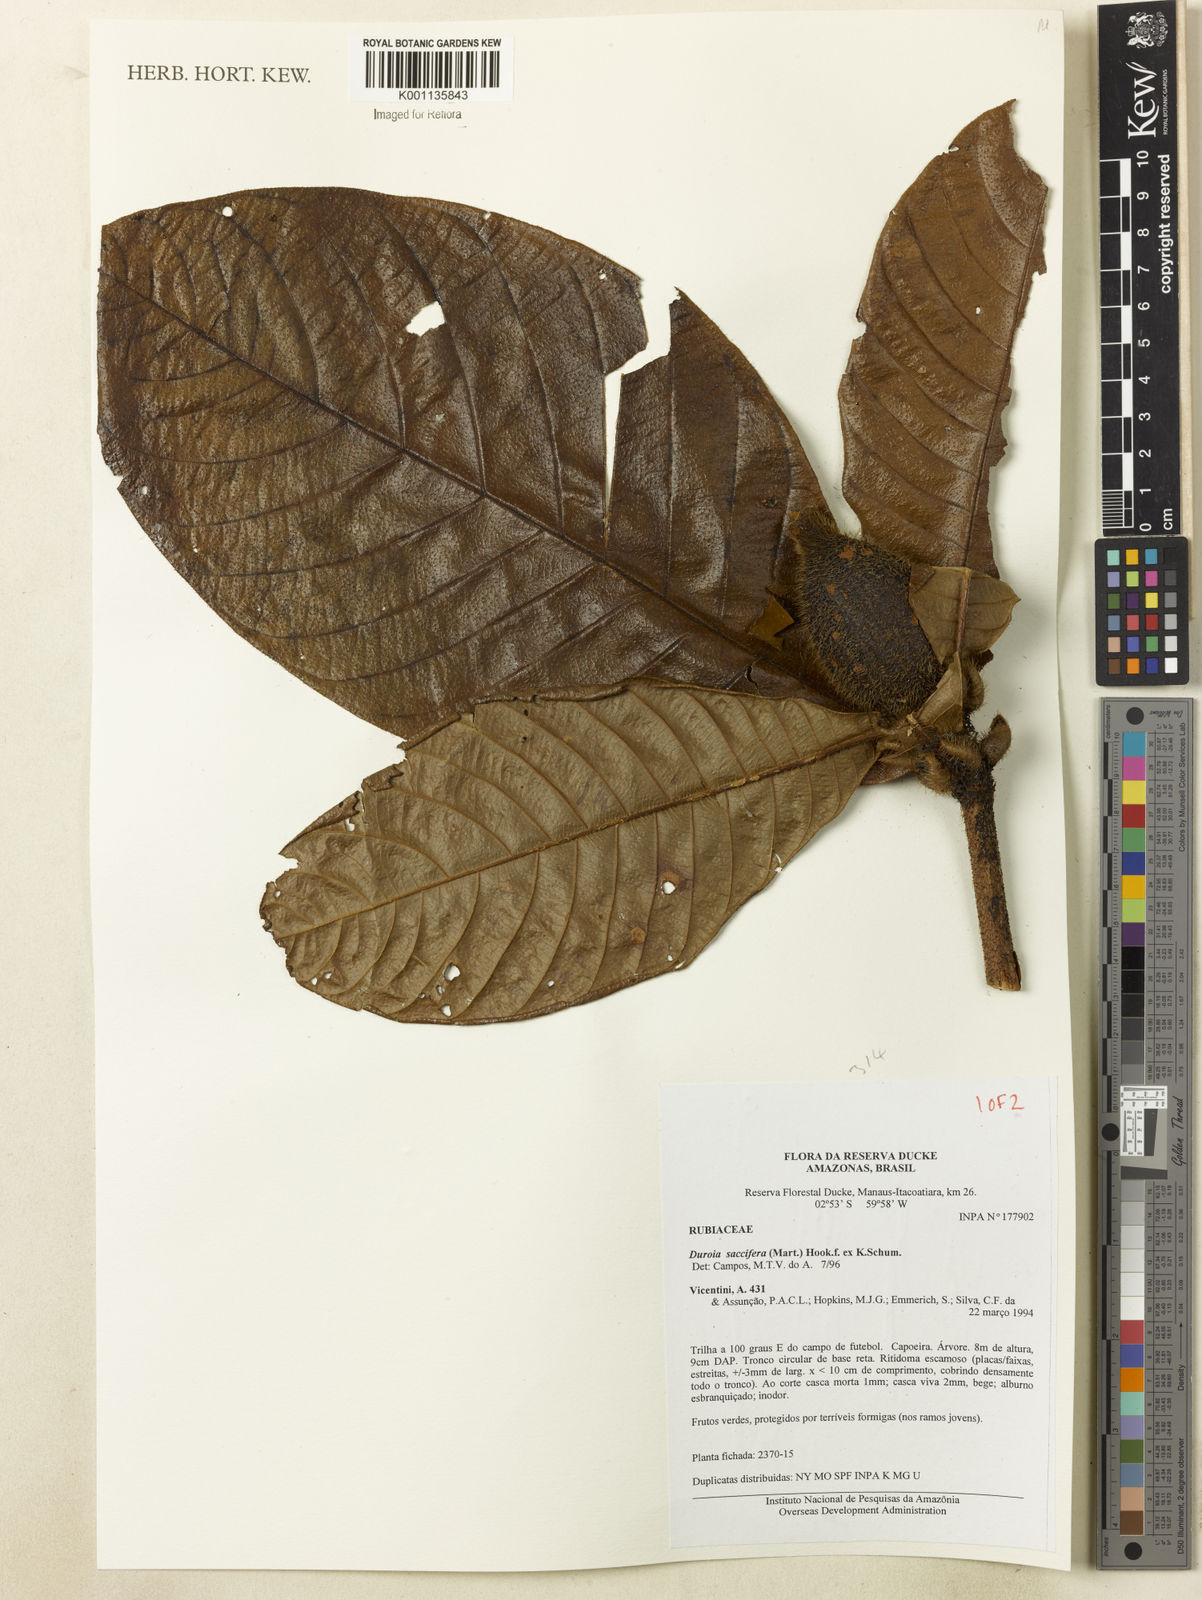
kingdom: Plantae
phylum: Tracheophyta
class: Magnoliopsida
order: Gentianales
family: Rubiaceae
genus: Duroia
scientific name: Duroia saccifera
